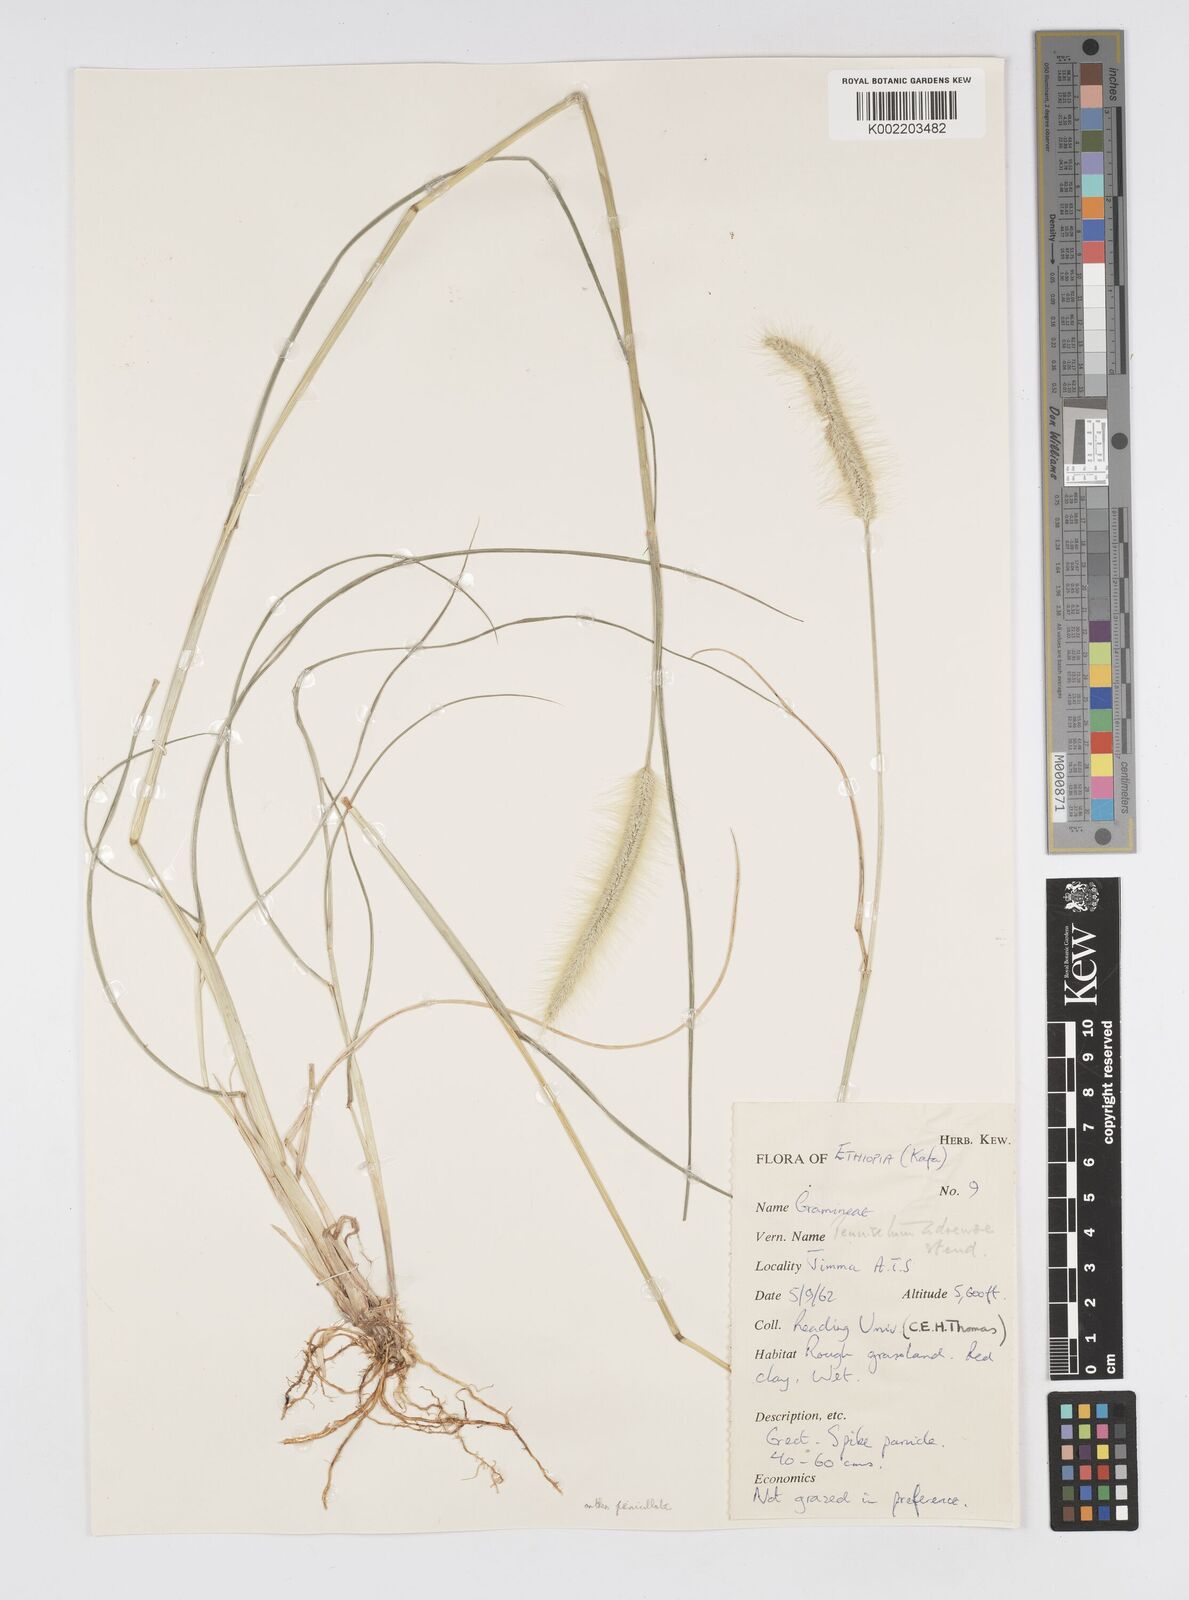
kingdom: Plantae
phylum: Tracheophyta
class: Liliopsida
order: Poales
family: Poaceae
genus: Cenchrus
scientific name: Cenchrus geniculatus
